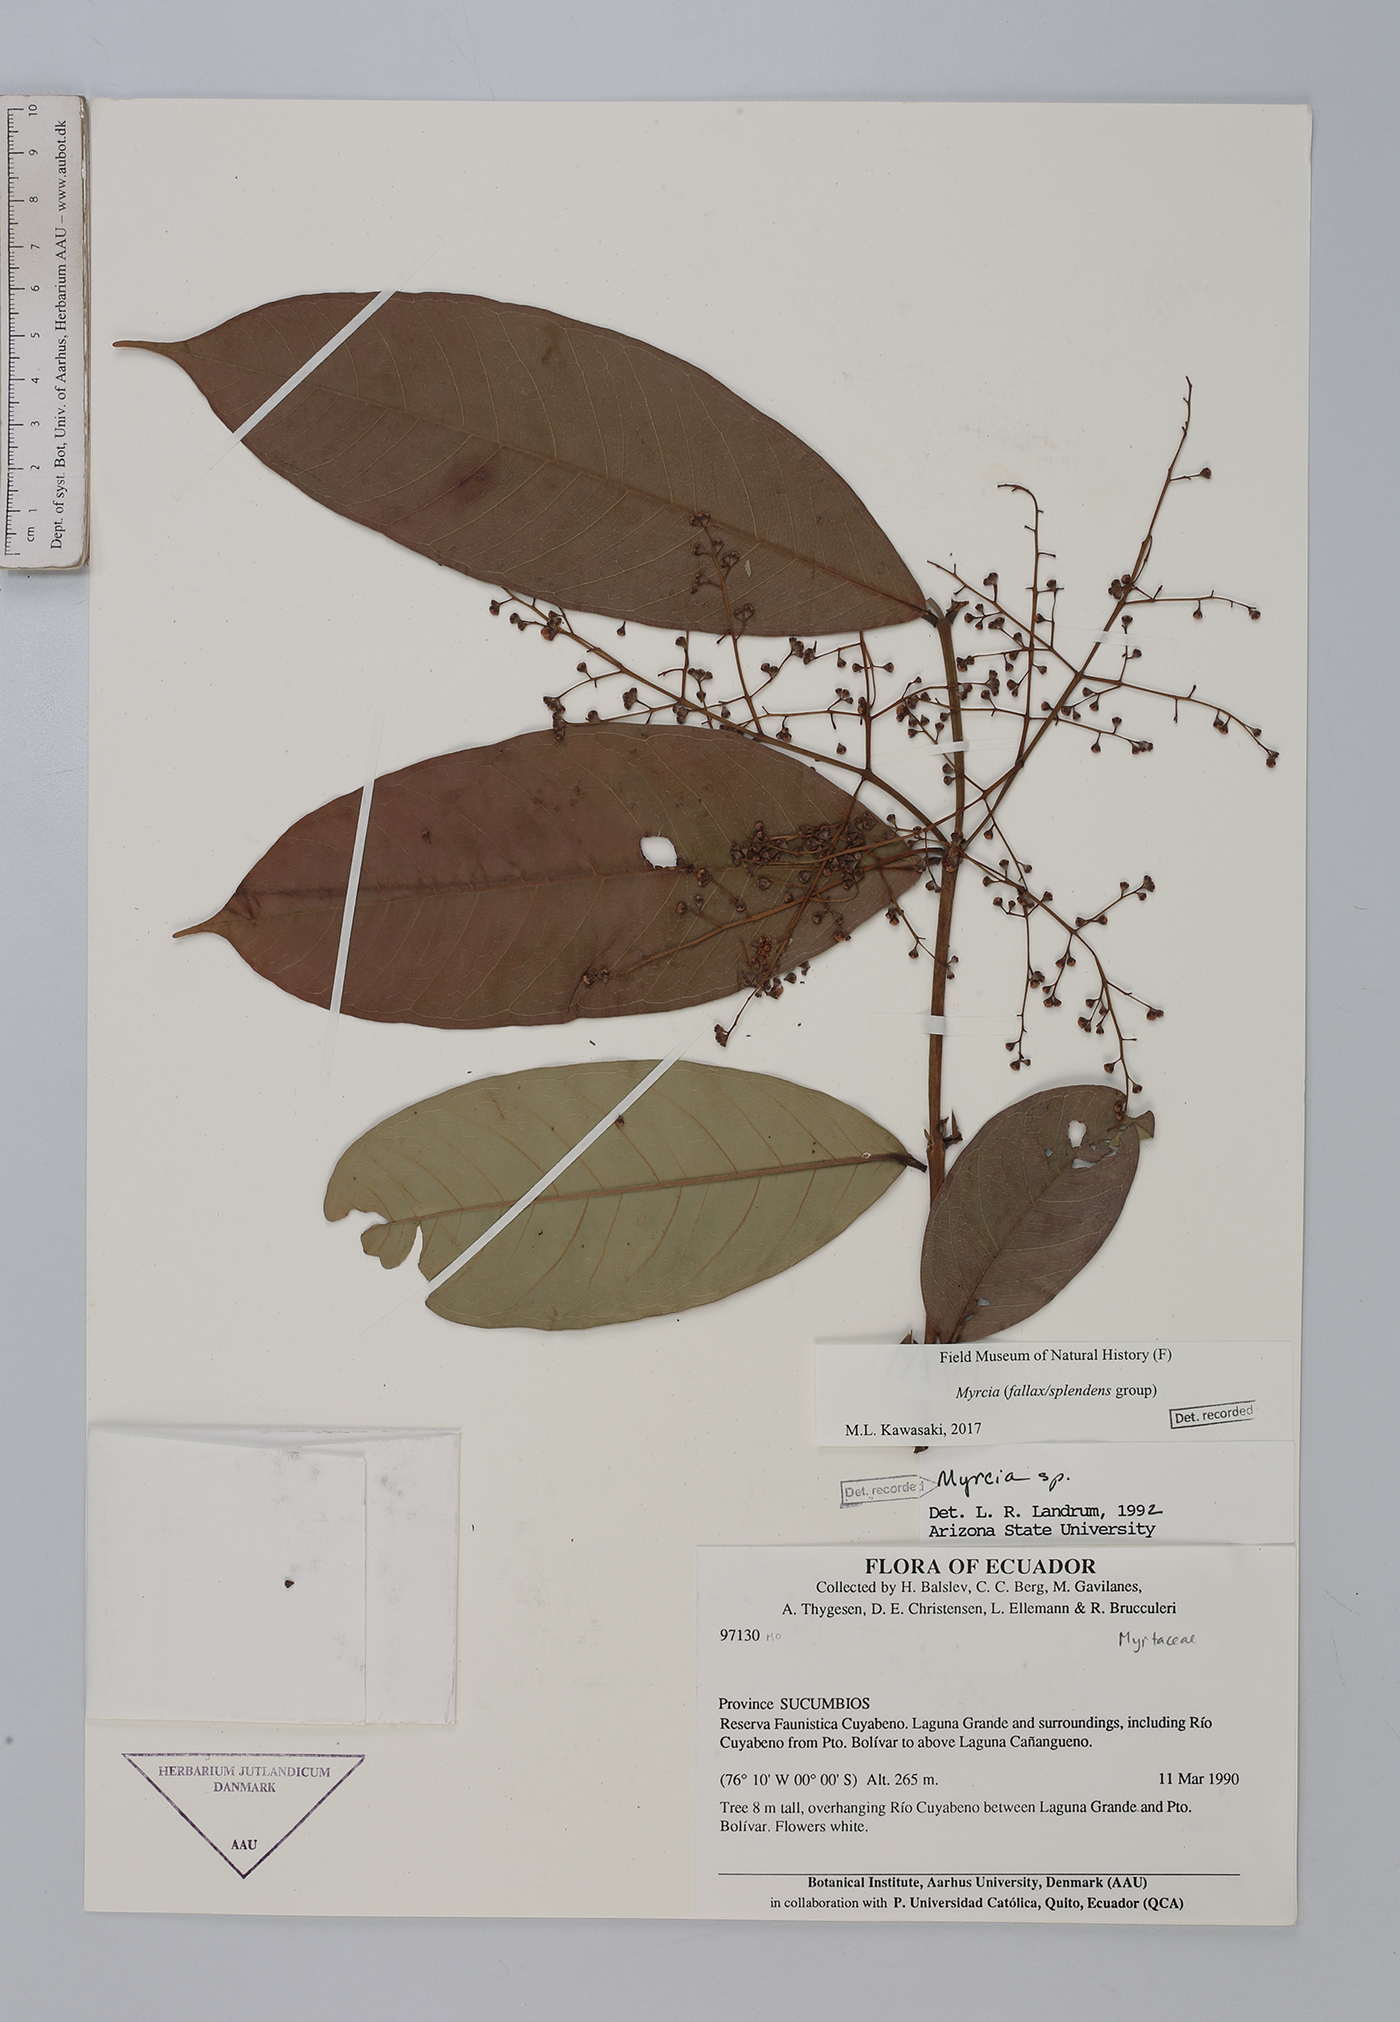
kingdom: Plantae
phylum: Tracheophyta
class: Magnoliopsida
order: Myrtales
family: Myrtaceae
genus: Myrcia
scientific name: Myrcia
